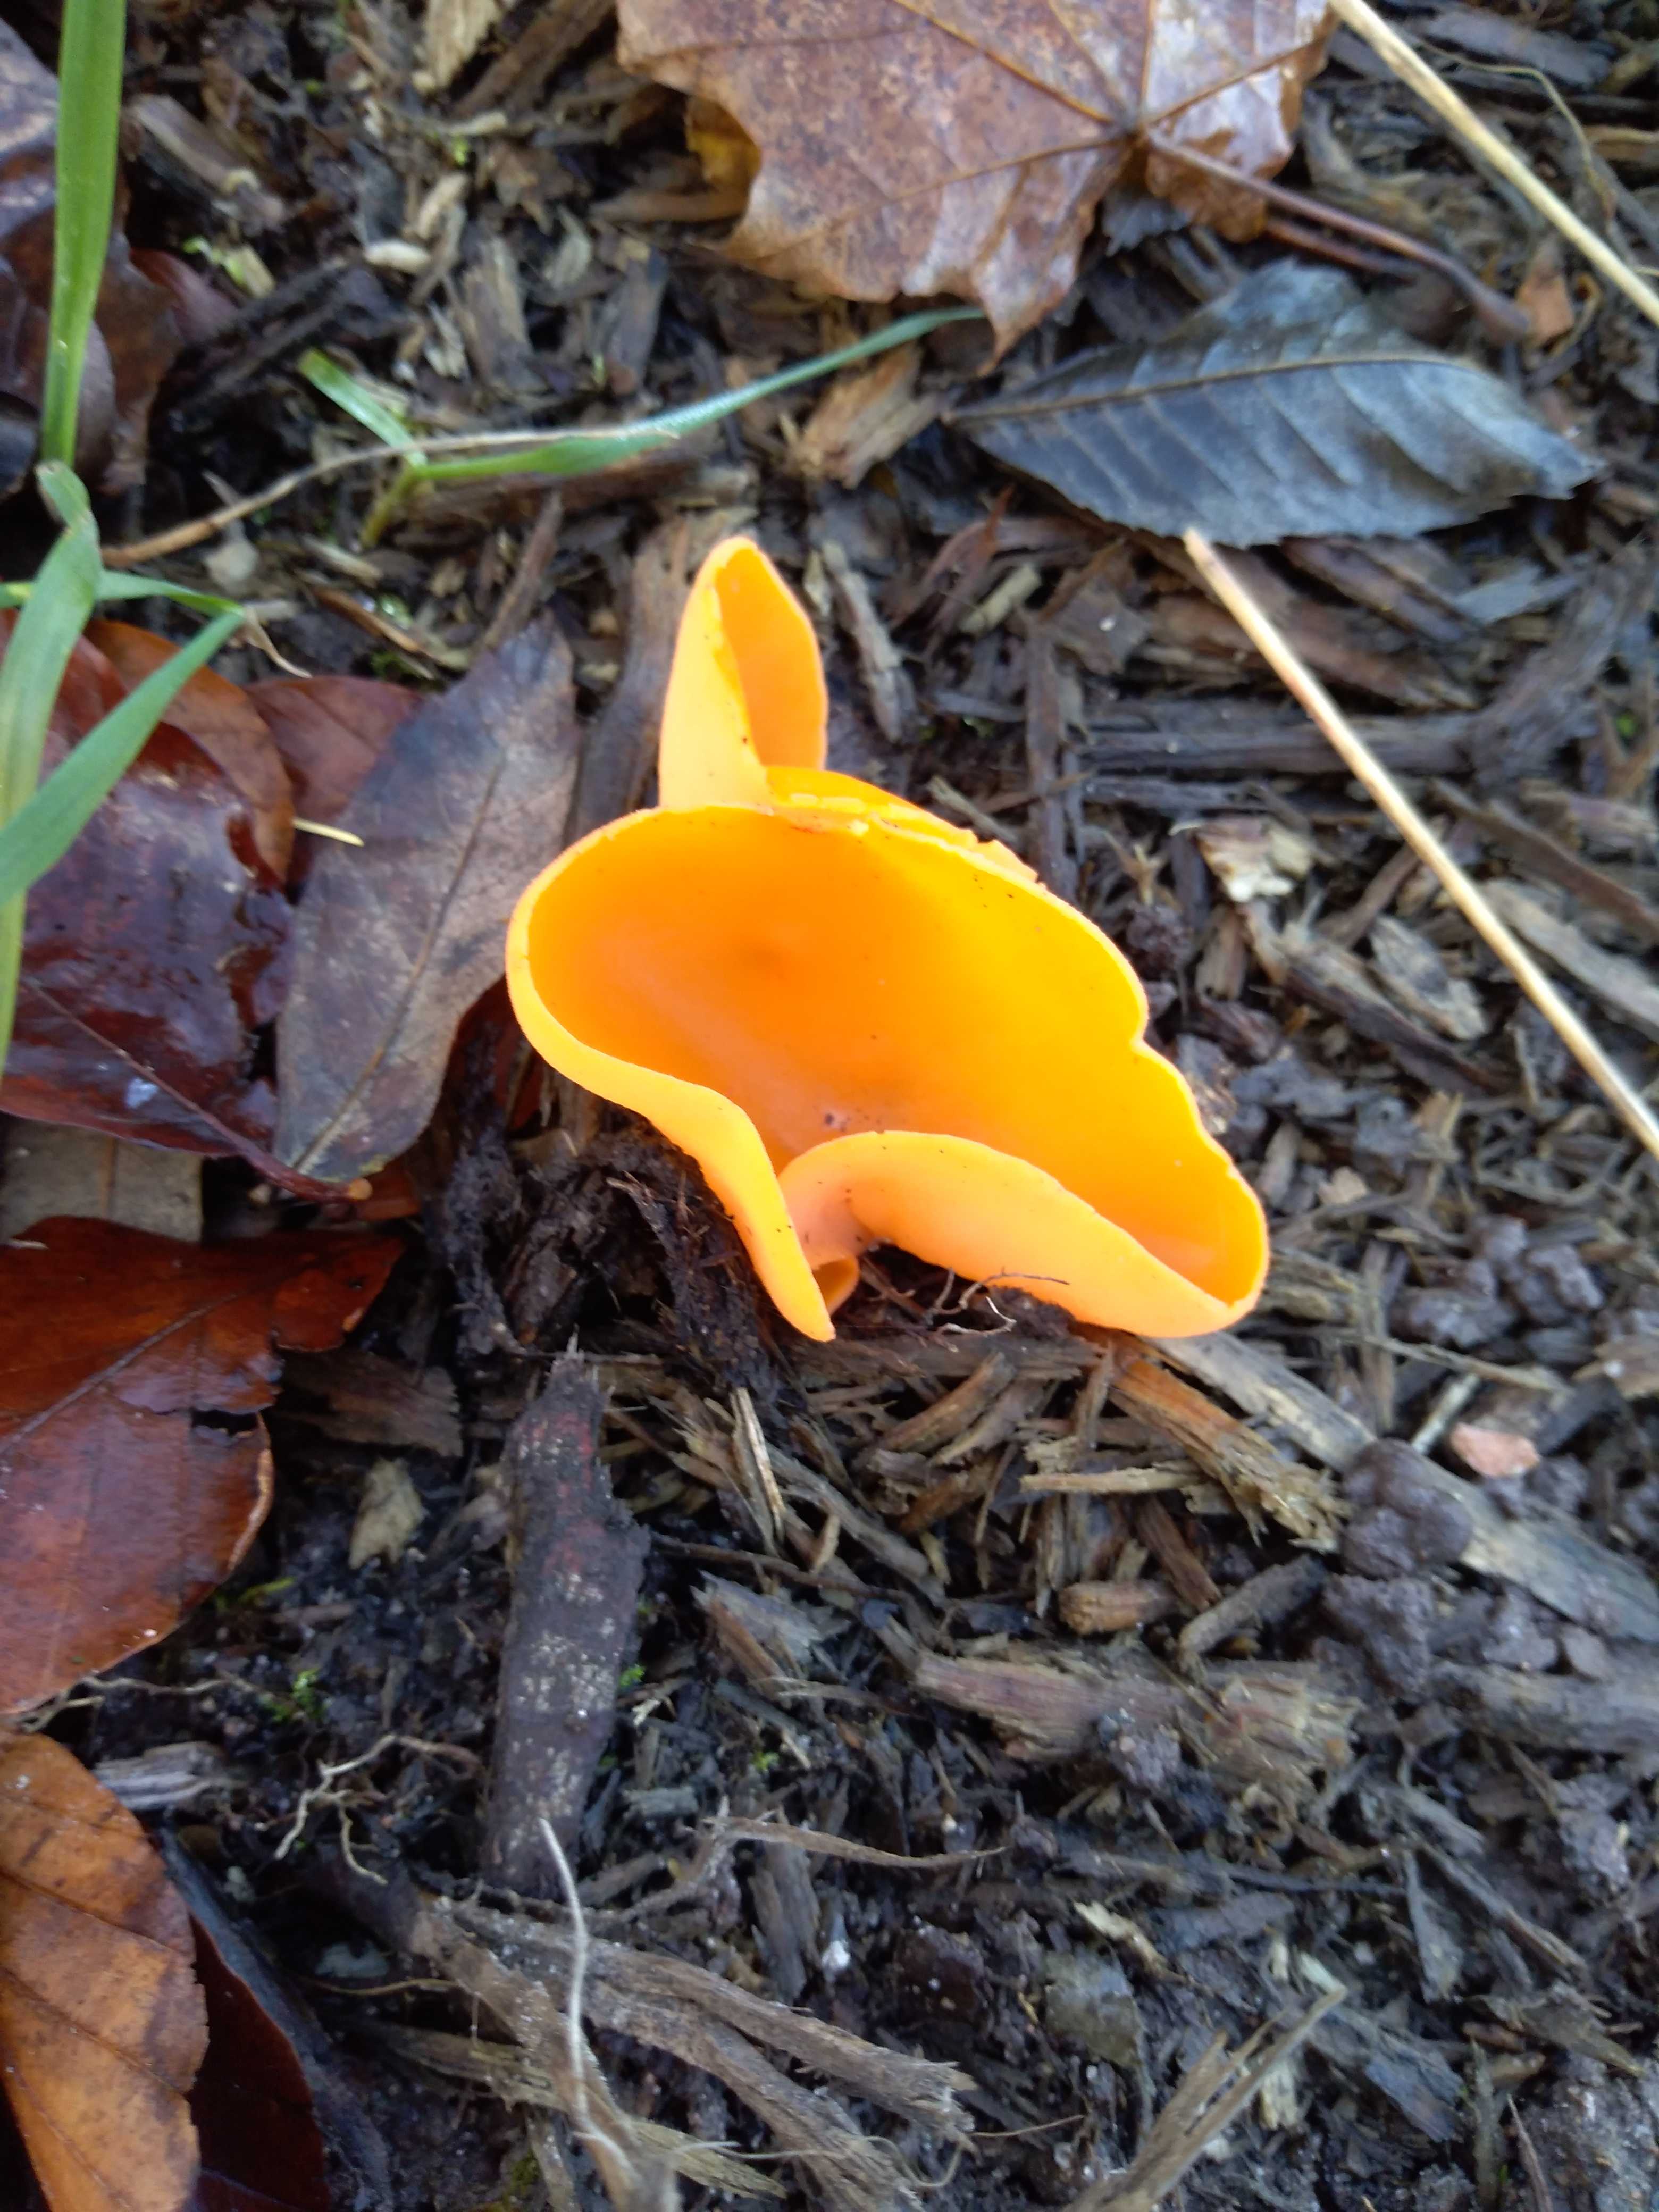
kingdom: Fungi
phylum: Ascomycota
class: Pezizomycetes
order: Pezizales
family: Pyronemataceae
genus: Aleuria
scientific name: Aleuria aurantia
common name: almindelig orangebæger
